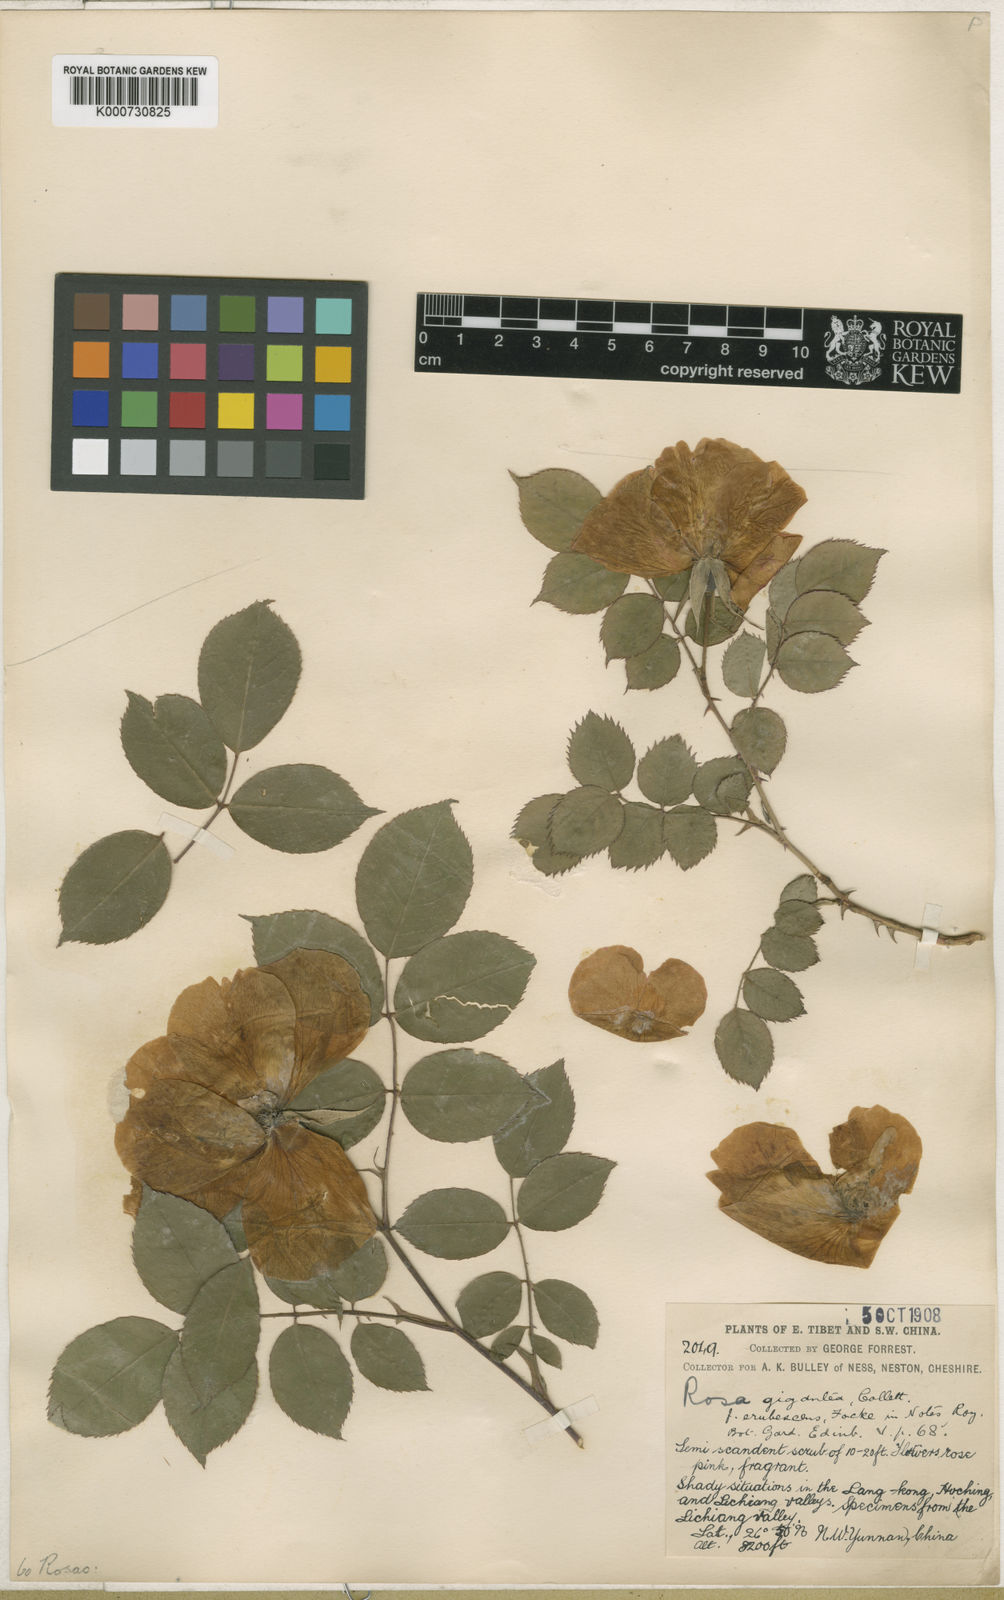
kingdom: Plantae
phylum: Tracheophyta
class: Magnoliopsida
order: Rosales
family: Rosaceae
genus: Rosa
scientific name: Rosa odorata
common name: Tea rose
